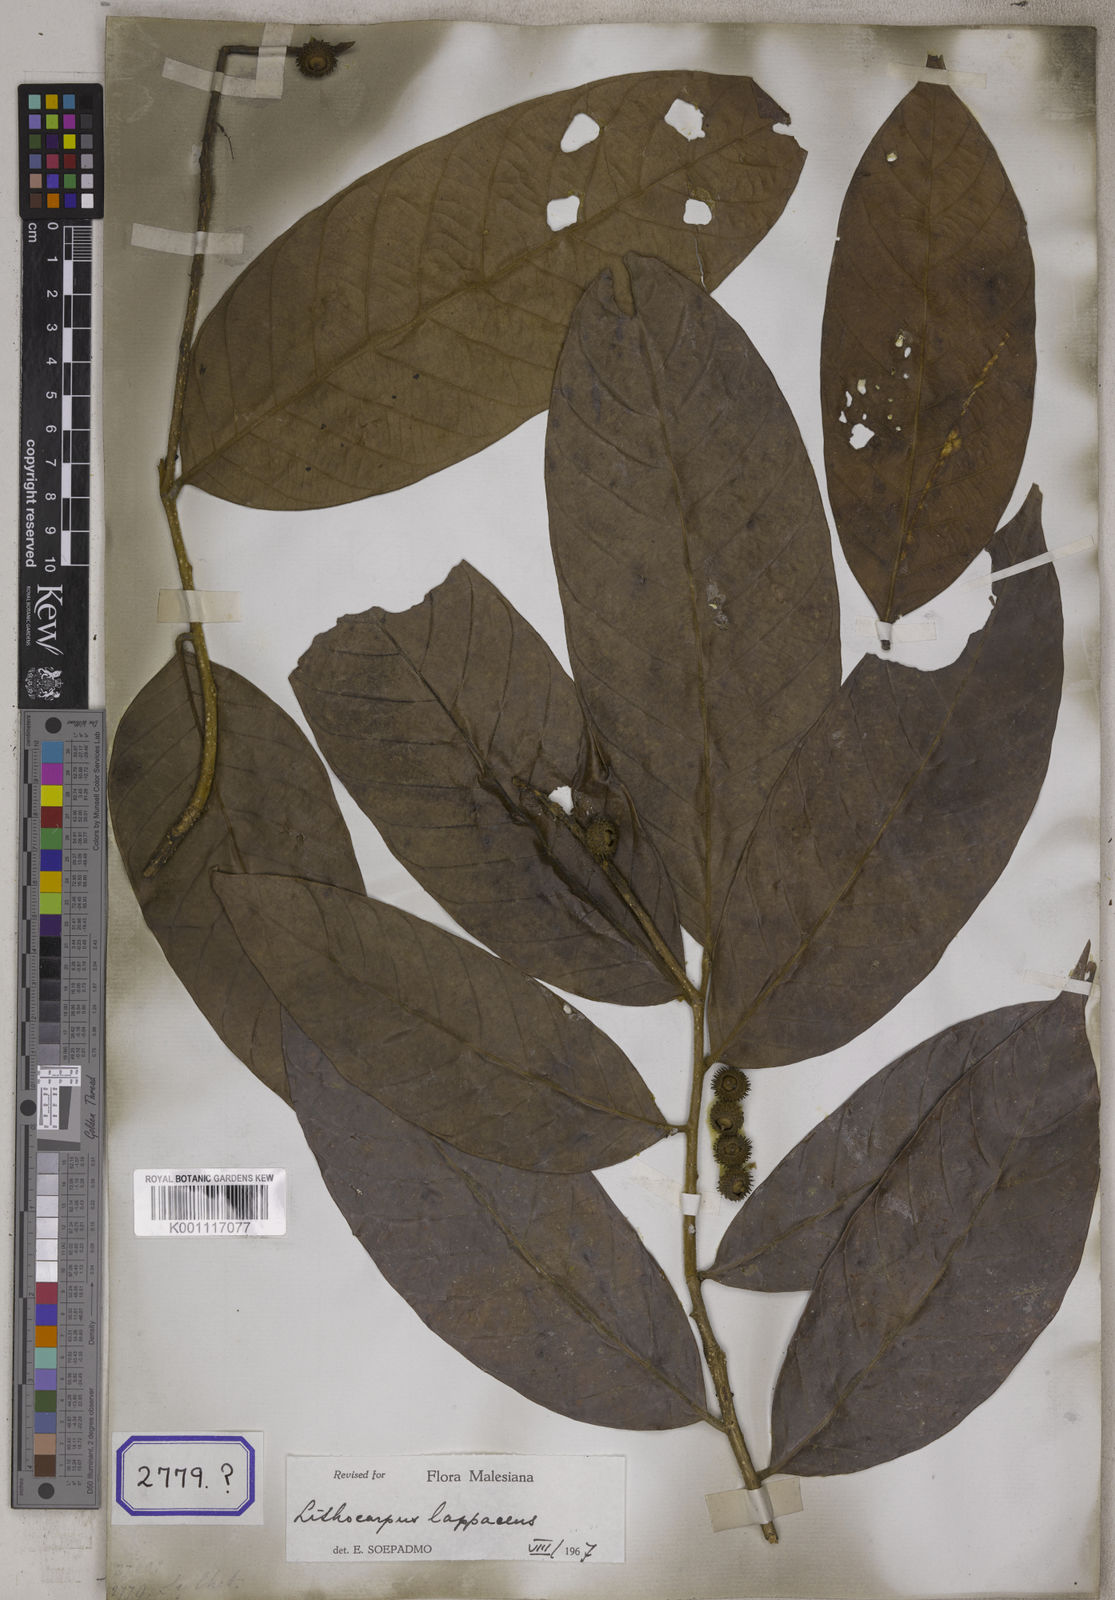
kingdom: Plantae
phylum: Tracheophyta
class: Magnoliopsida
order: Fagales
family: Fagaceae
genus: Lithocarpus
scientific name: Lithocarpus cyclophorus
